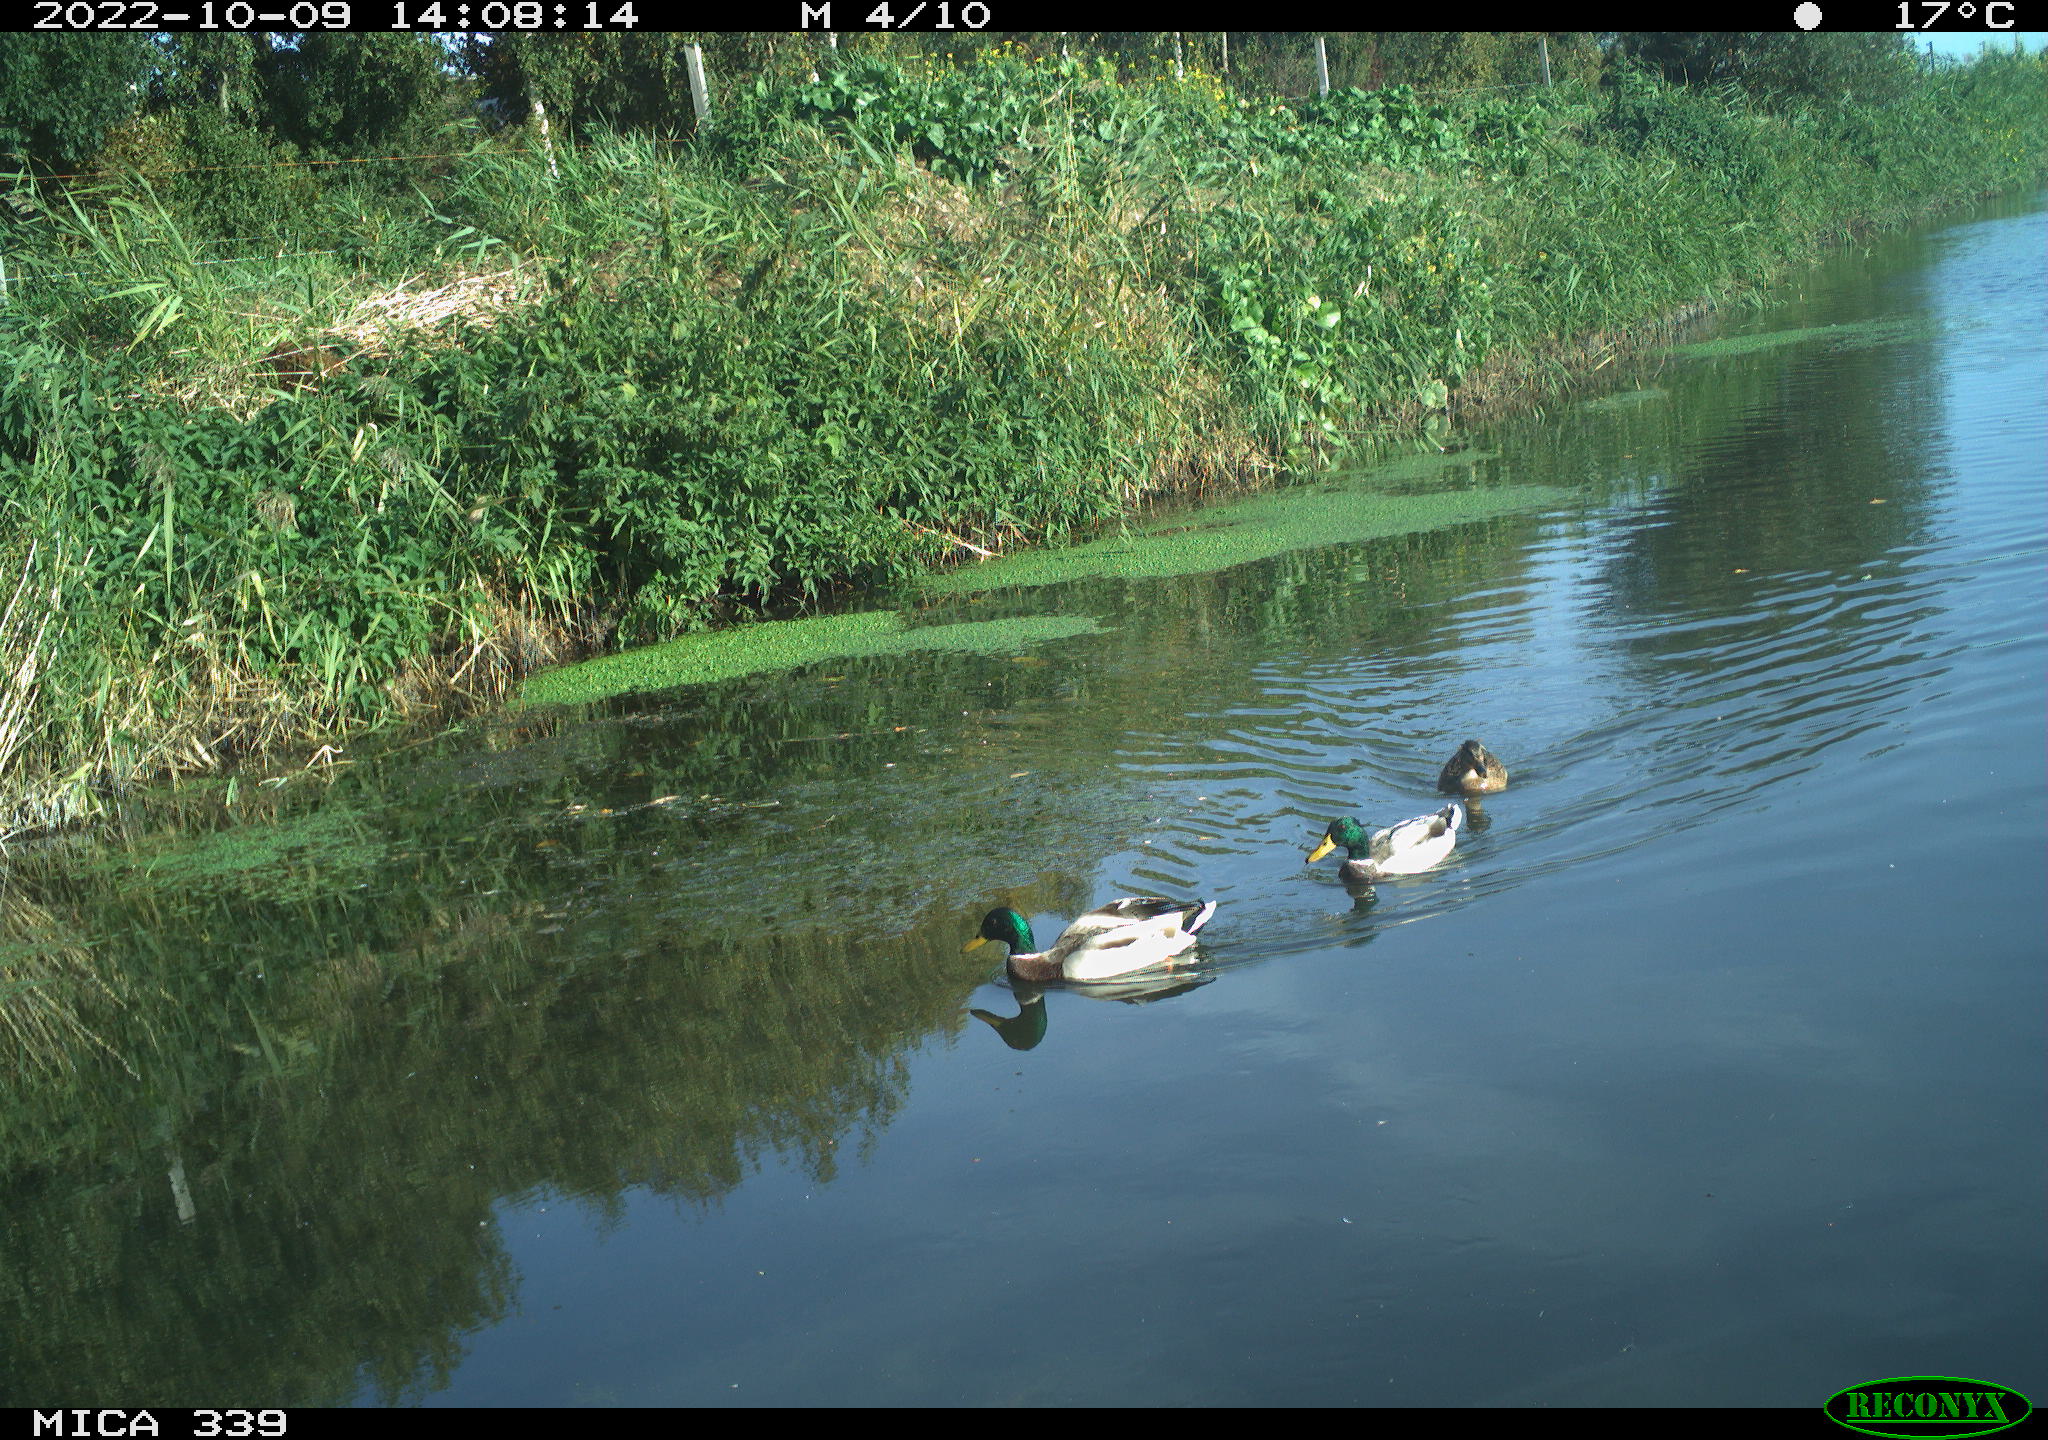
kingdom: Animalia
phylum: Chordata
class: Aves
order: Anseriformes
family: Anatidae
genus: Anas
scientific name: Anas platyrhynchos
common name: Mallard
